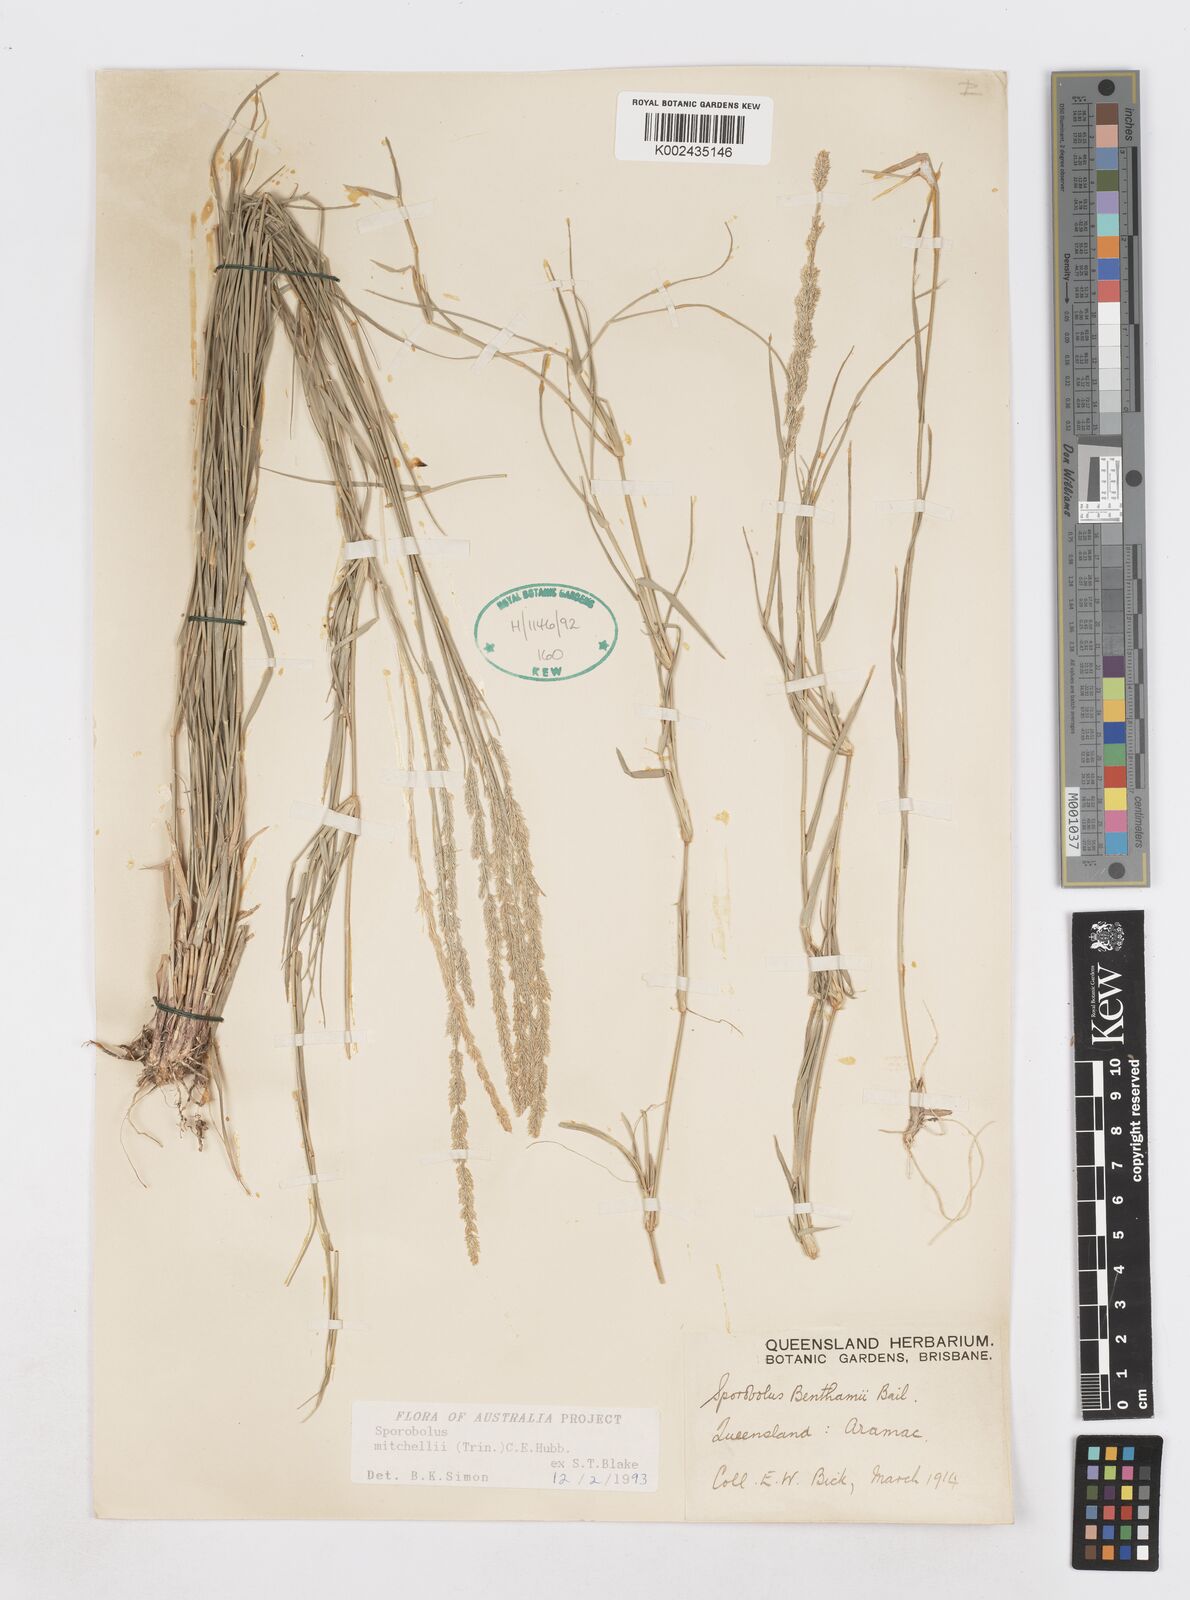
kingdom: Plantae
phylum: Tracheophyta
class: Liliopsida
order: Poales
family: Poaceae
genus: Sporobolus
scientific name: Sporobolus mitchellii
